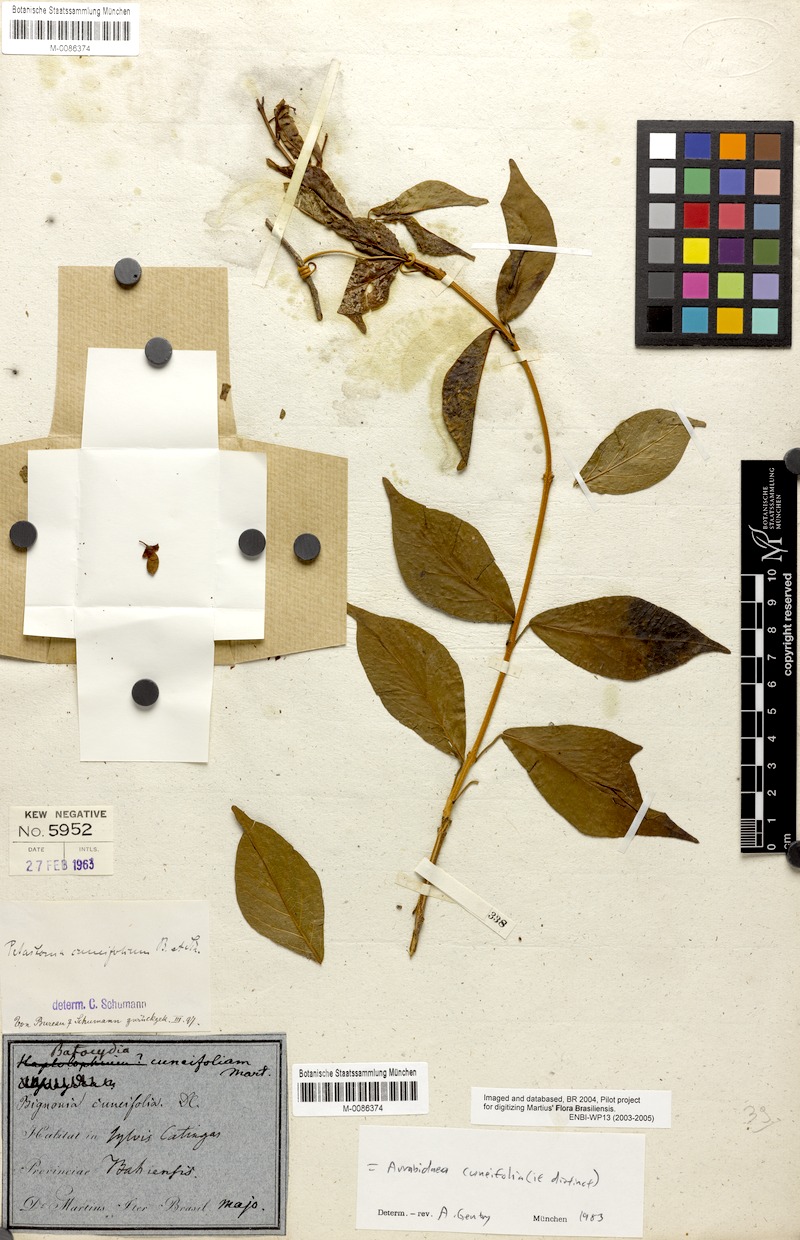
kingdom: Plantae
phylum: Tracheophyta
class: Magnoliopsida
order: Lamiales
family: Bignoniaceae
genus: Fridericia
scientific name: Fridericia cuneifolia
